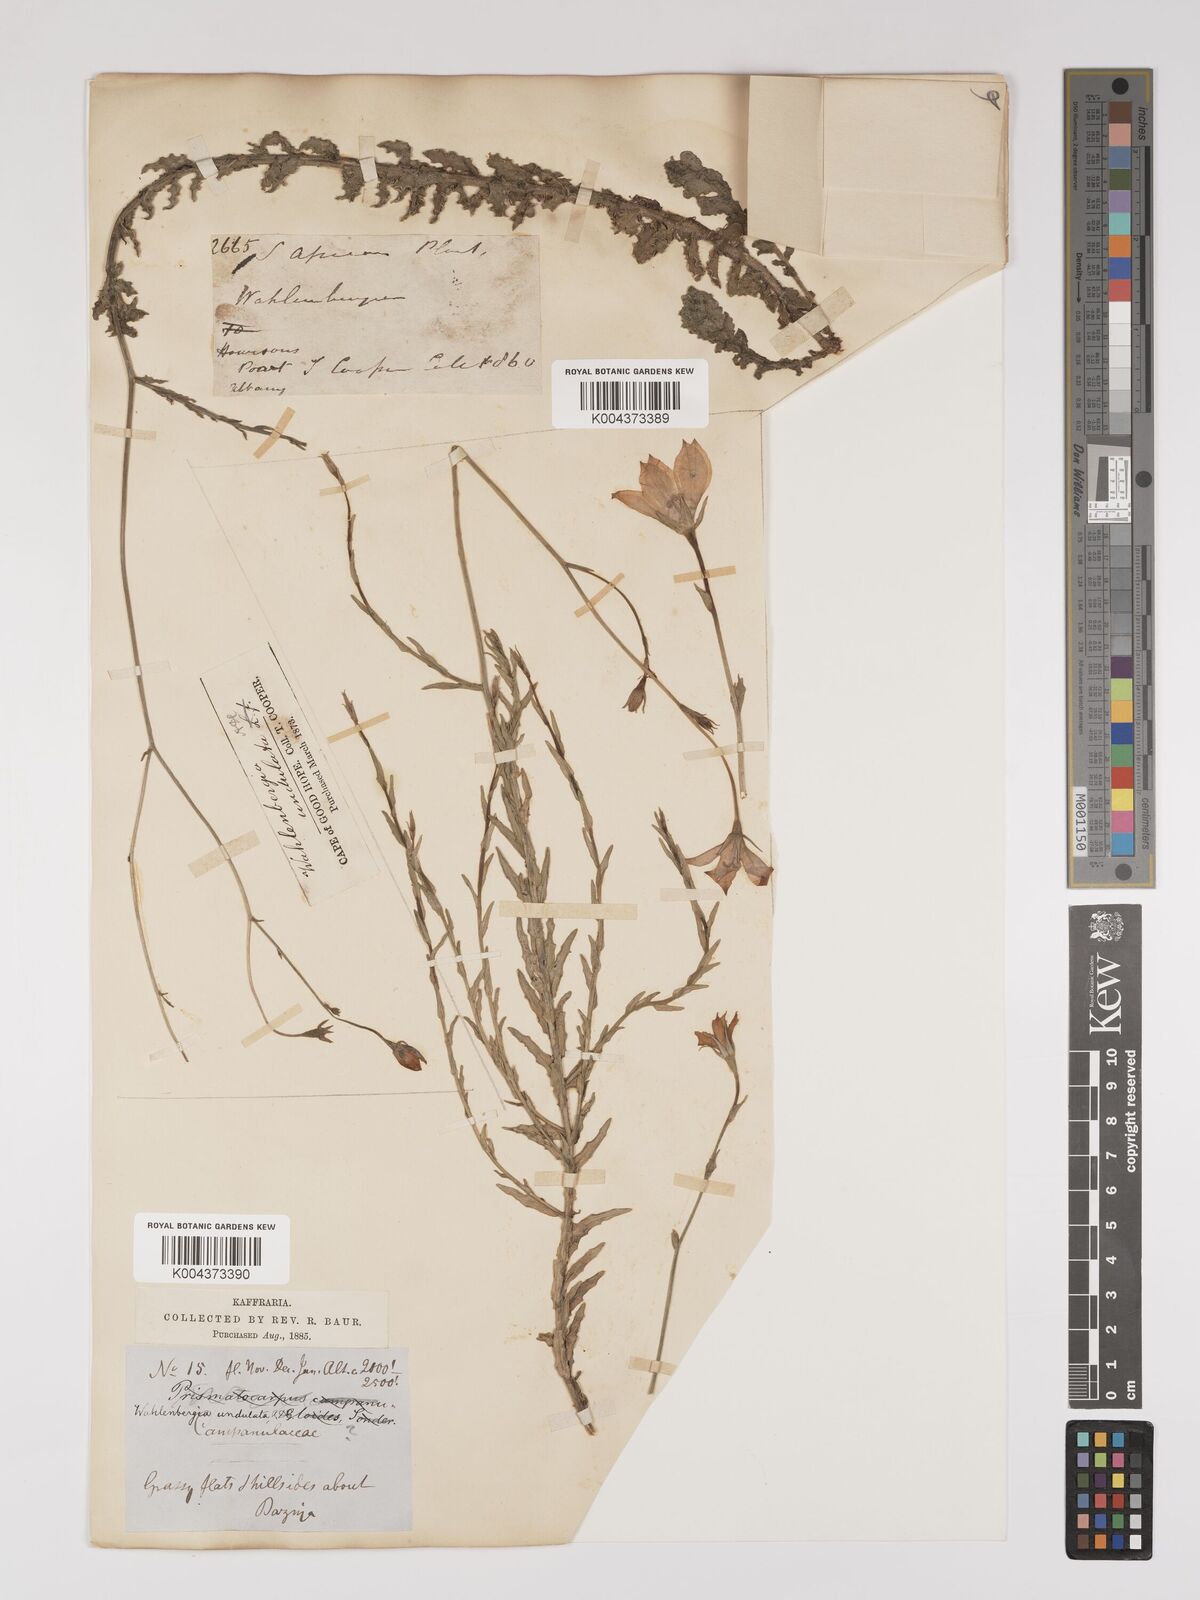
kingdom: Plantae
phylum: Tracheophyta
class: Magnoliopsida
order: Asterales
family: Campanulaceae
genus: Wahlenbergia
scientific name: Wahlenbergia undulata
